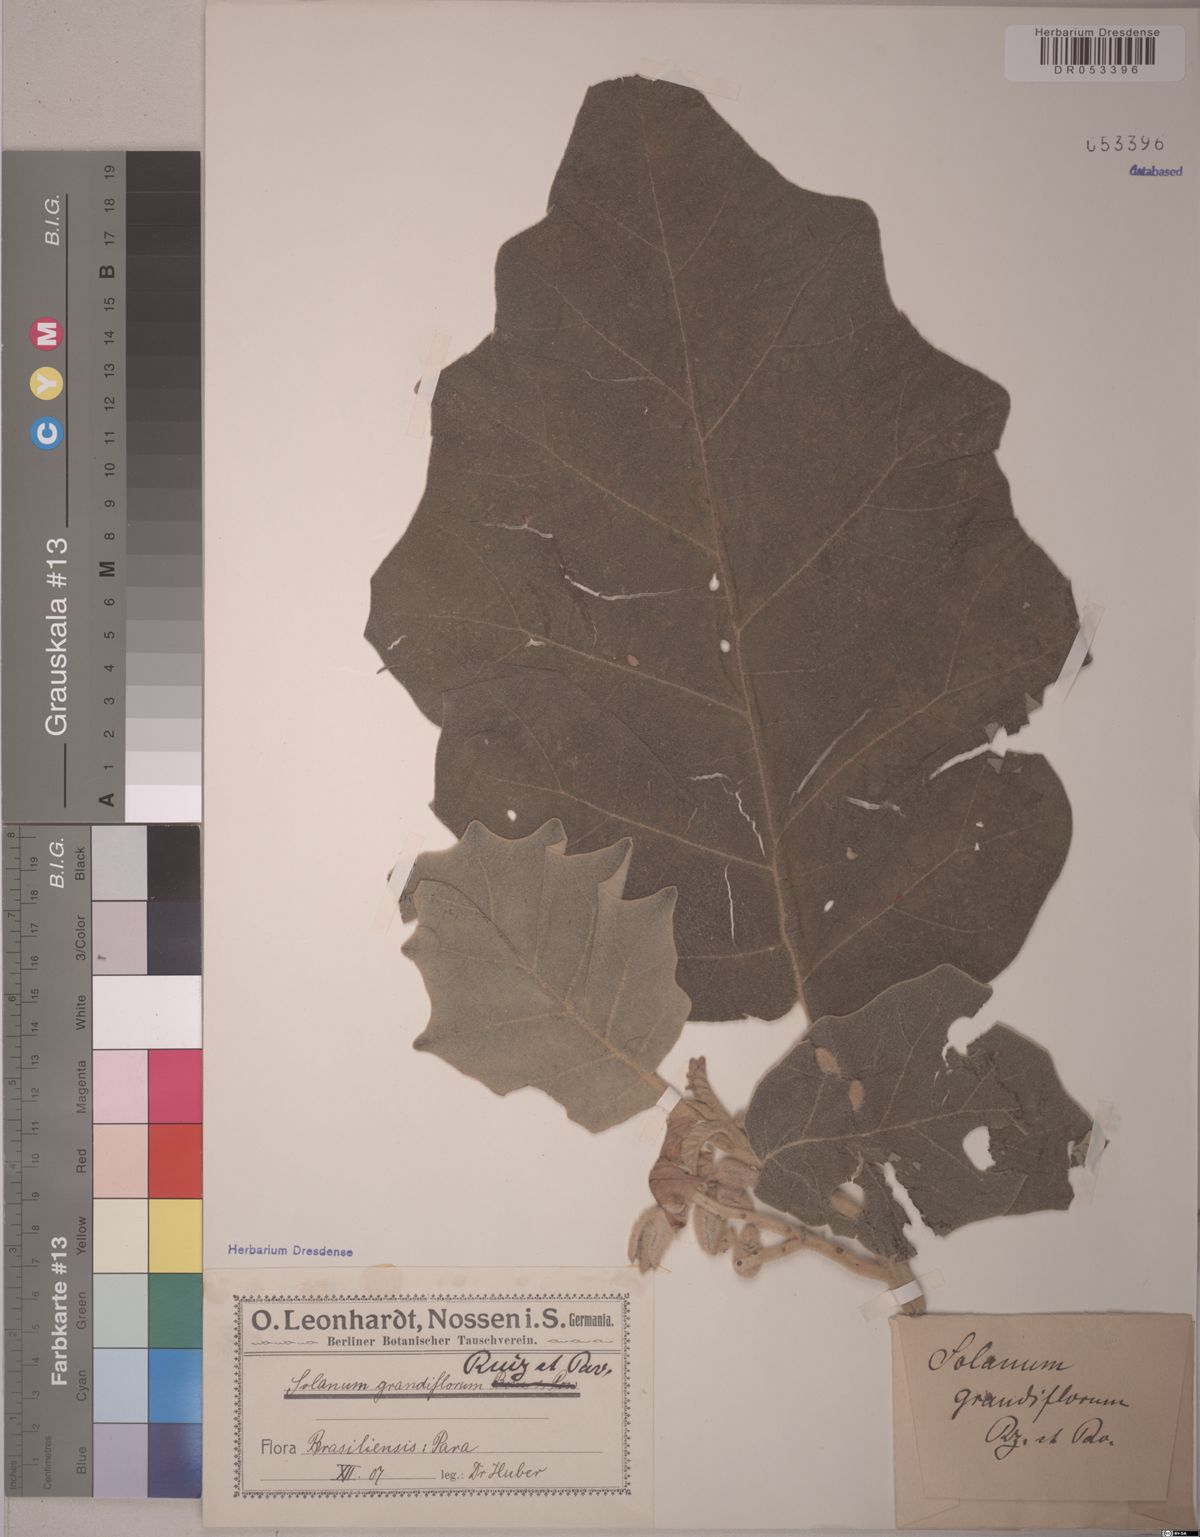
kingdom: Plantae
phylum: Tracheophyta
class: Magnoliopsida
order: Solanales
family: Solanaceae
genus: Solanum
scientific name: Solanum grandiflorum
